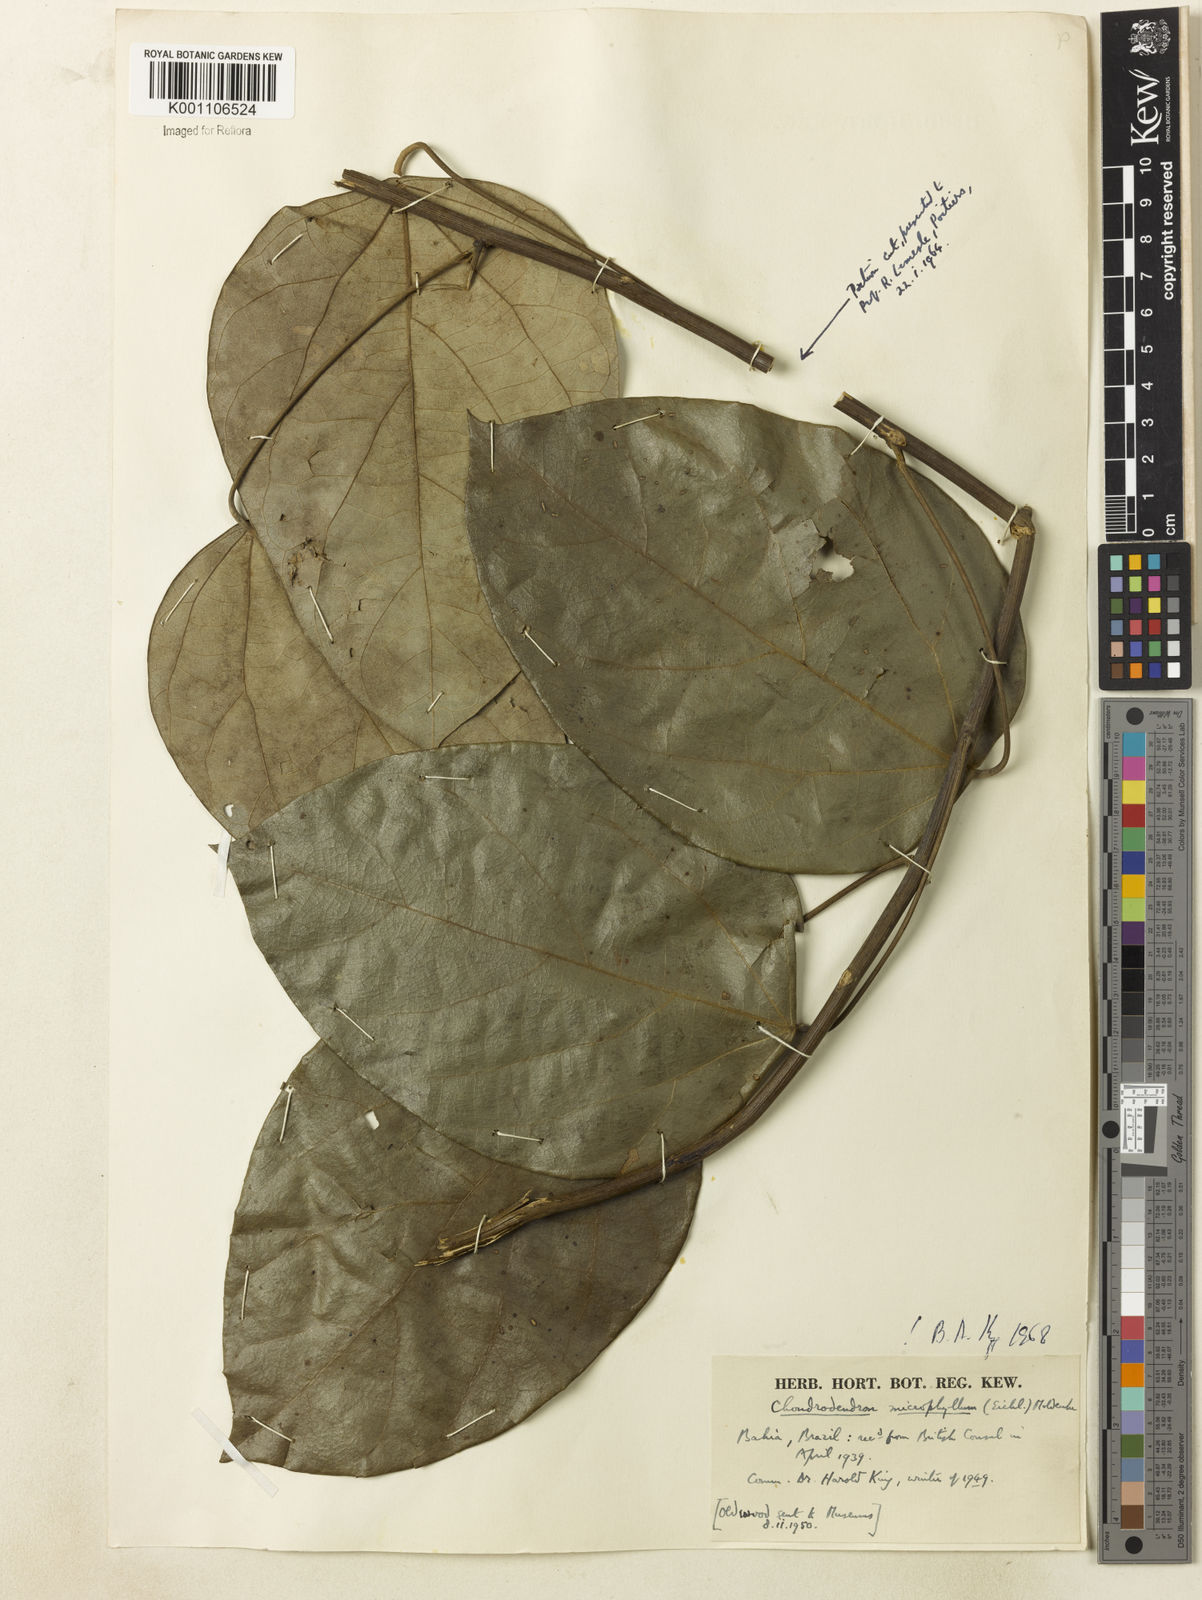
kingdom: Plantae
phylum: Tracheophyta
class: Magnoliopsida
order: Ranunculales
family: Menispermaceae
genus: Chondrodendron
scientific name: Chondrodendron microphyllum
